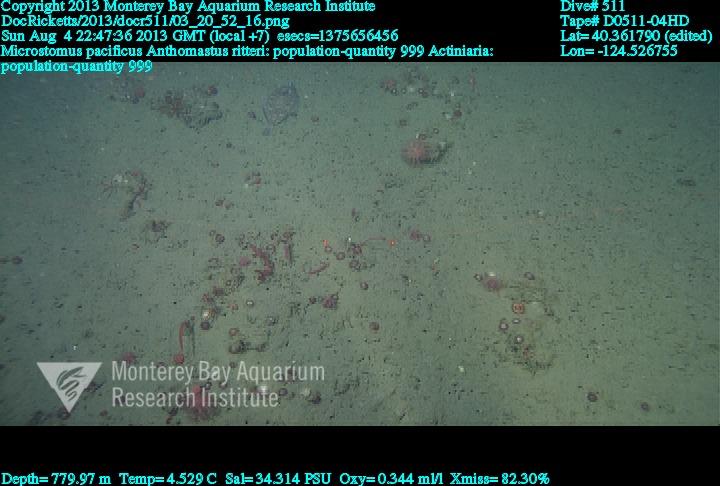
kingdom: Animalia
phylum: Cnidaria
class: Anthozoa
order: Scleralcyonacea
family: Coralliidae
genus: Heteropolypus
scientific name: Heteropolypus ritteri
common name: Ritter's soft coral
